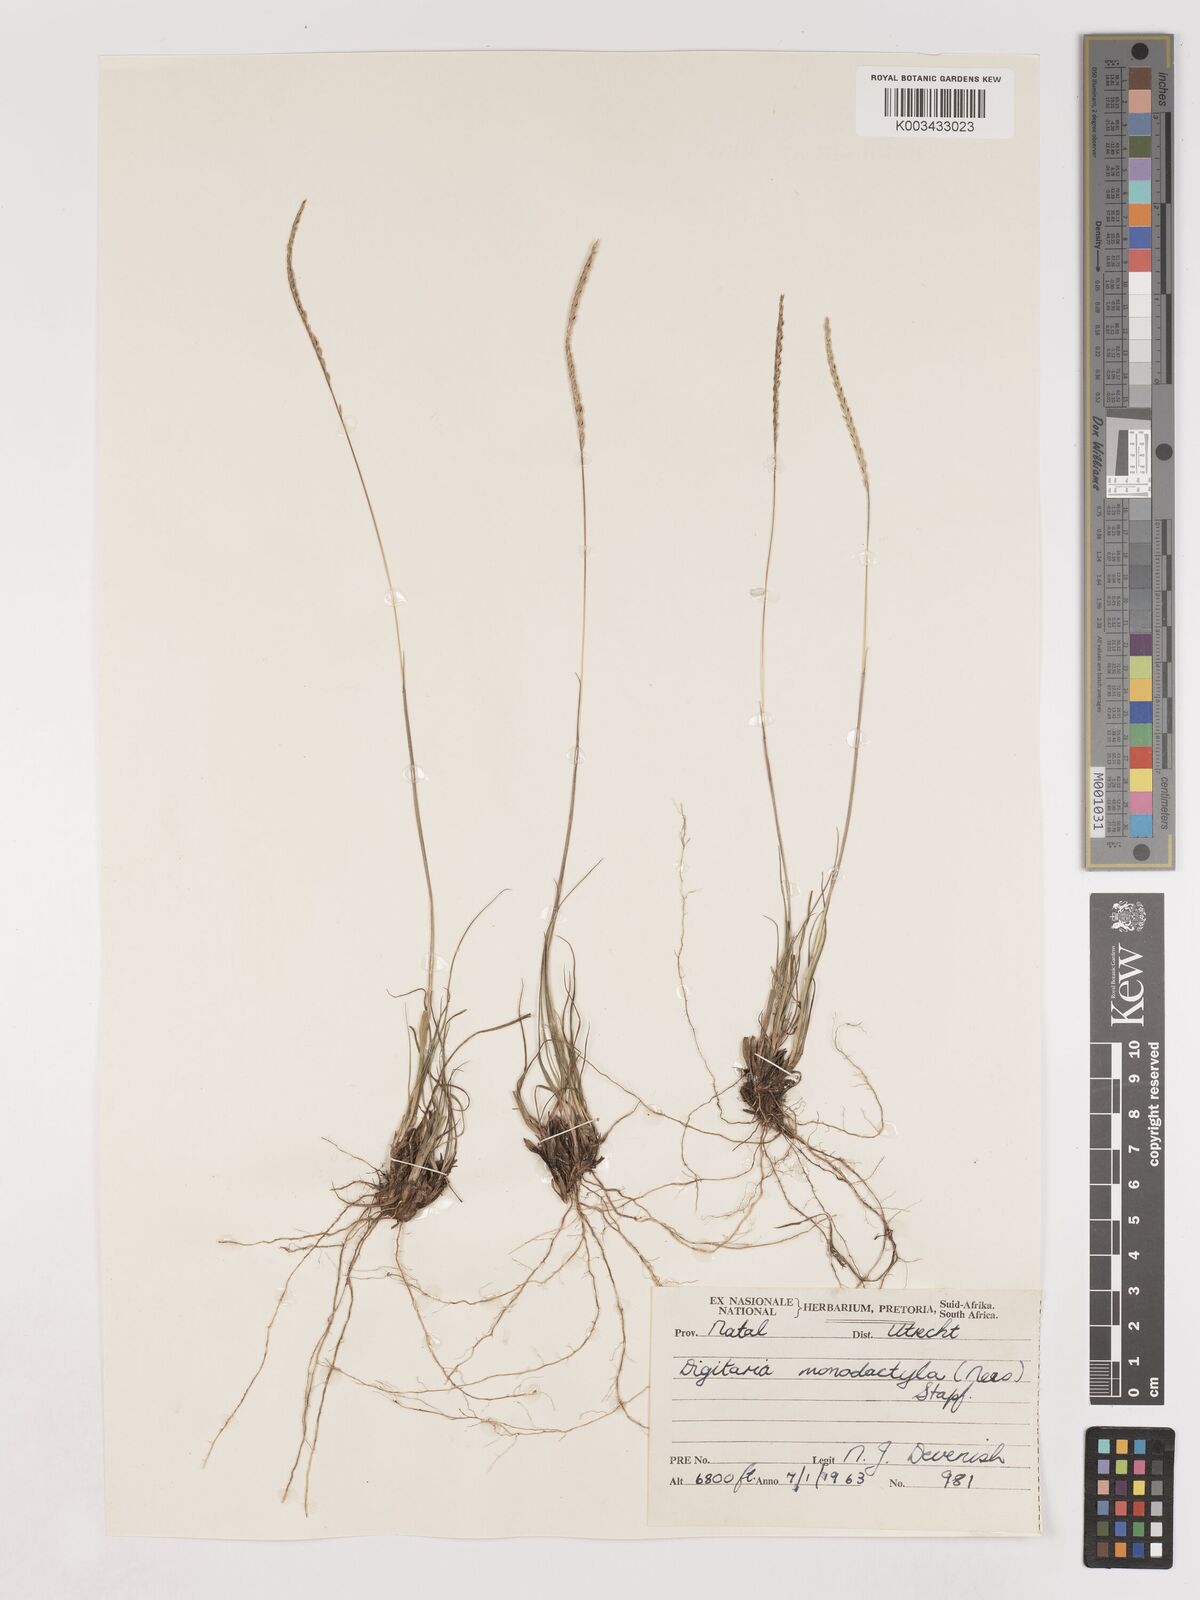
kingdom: Plantae
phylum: Tracheophyta
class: Liliopsida
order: Poales
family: Poaceae
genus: Digitaria
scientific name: Digitaria monodactyla
